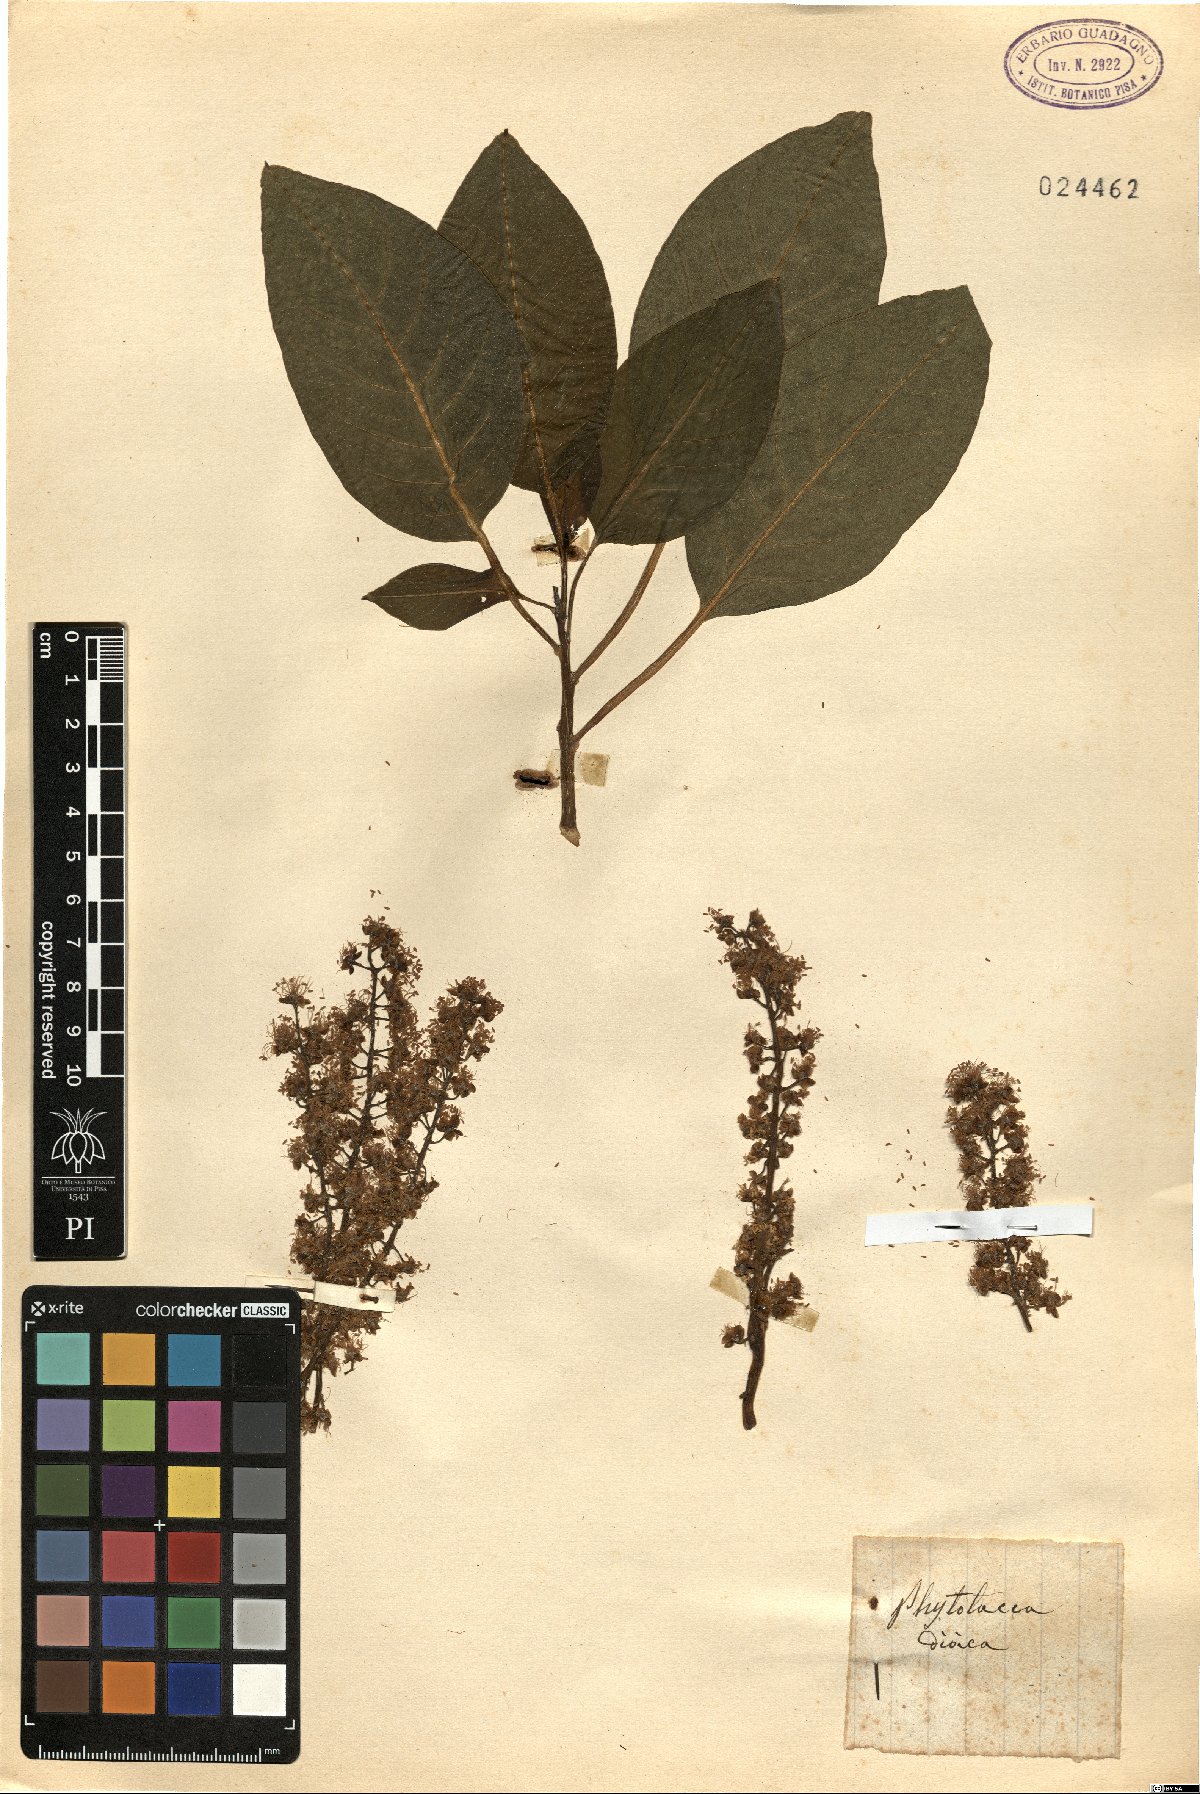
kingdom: Plantae
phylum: Tracheophyta
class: Magnoliopsida
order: Caryophyllales
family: Phytolaccaceae
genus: Phytolacca
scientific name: Phytolacca dioica
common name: Pokeweed
